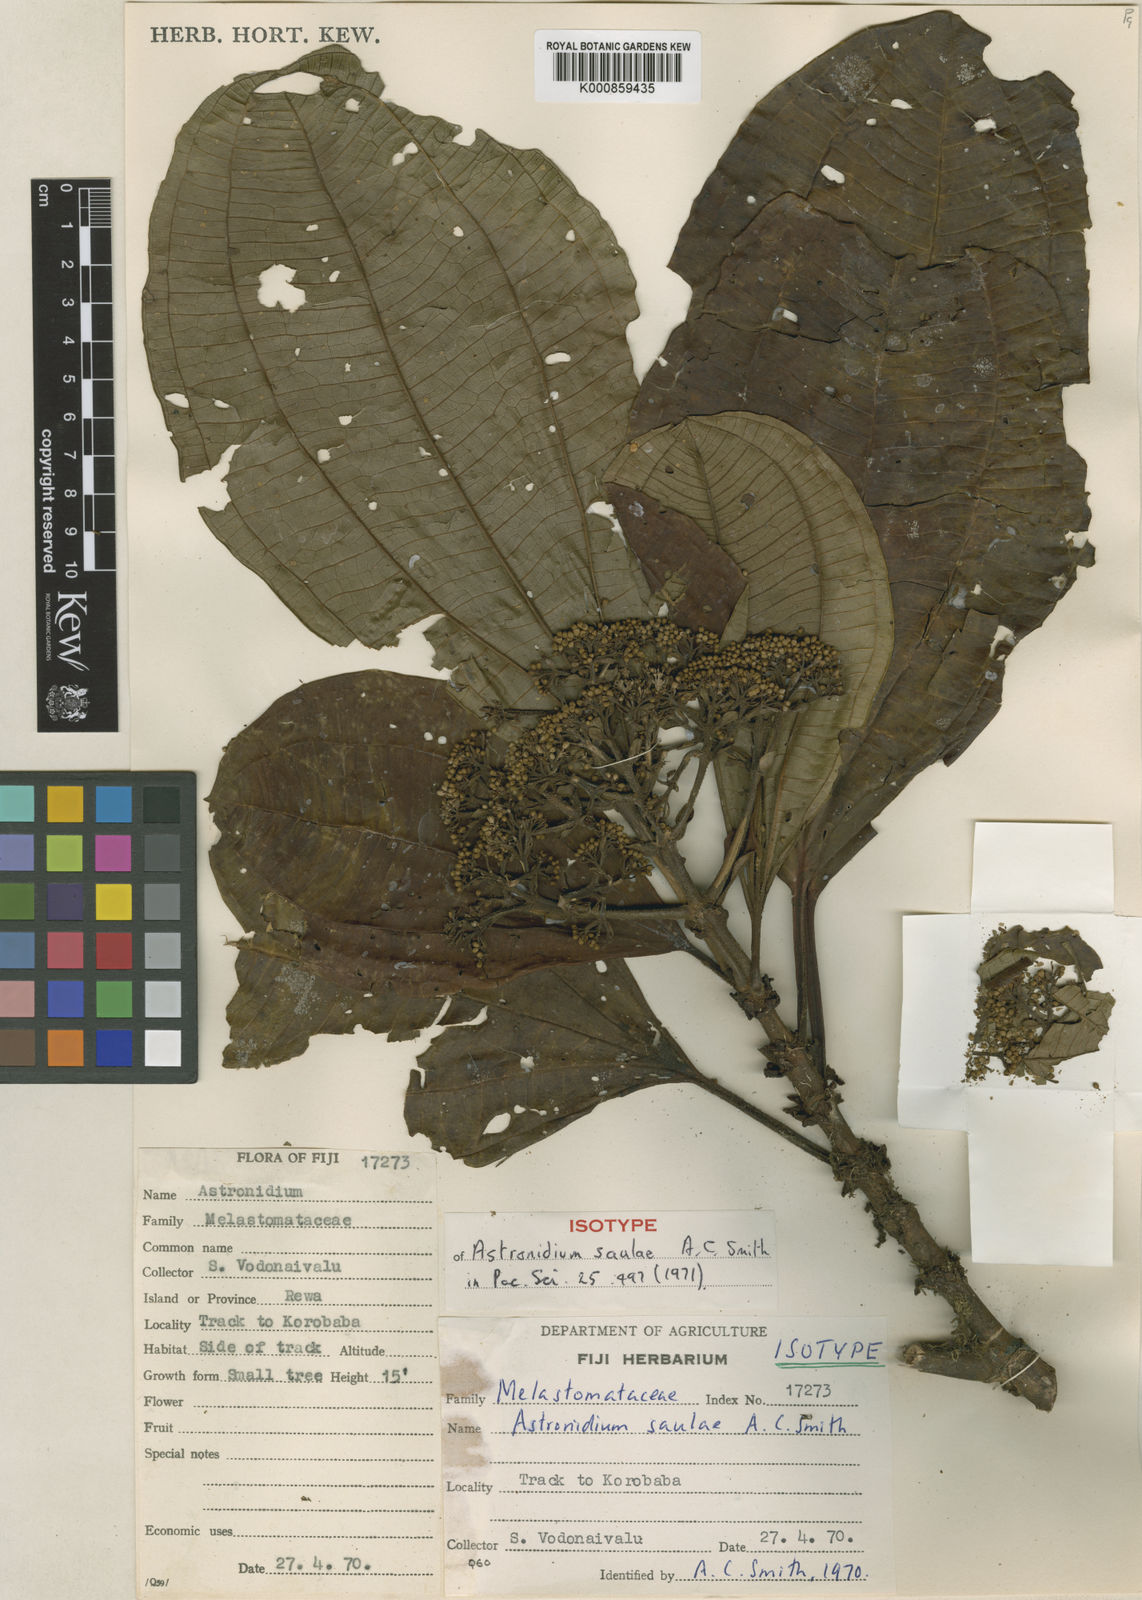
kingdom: Plantae
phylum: Tracheophyta
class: Magnoliopsida
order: Myrtales
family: Melastomataceae
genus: Astronidium
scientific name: Astronidium saulae
